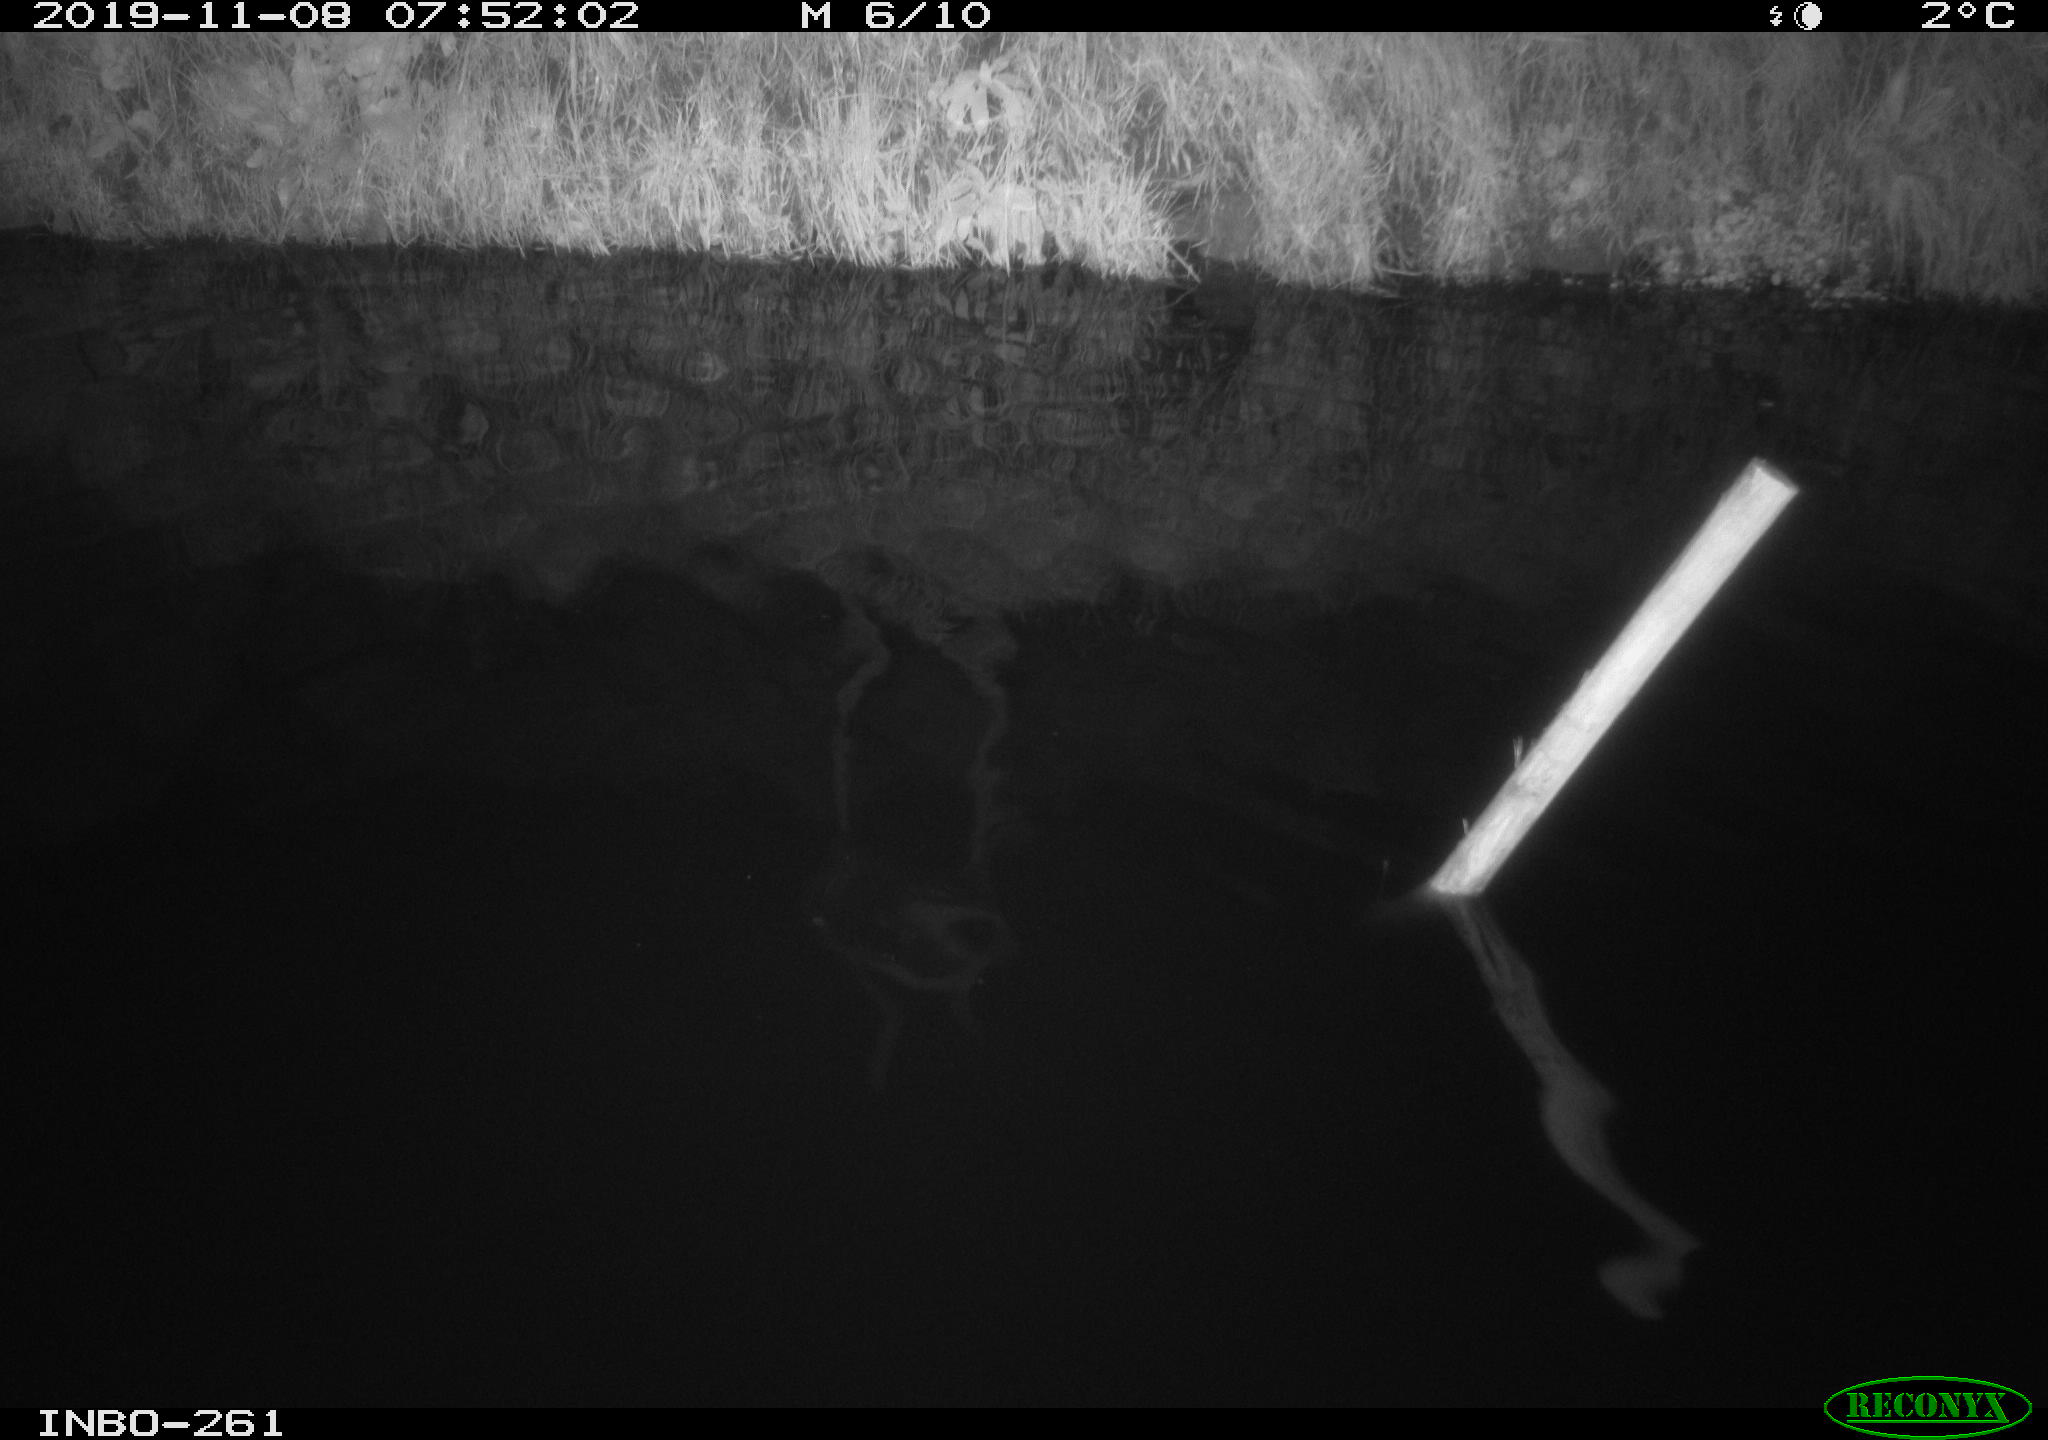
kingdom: Animalia
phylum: Chordata
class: Aves
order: Anseriformes
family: Anatidae
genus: Anas
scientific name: Anas platyrhynchos
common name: Mallard
